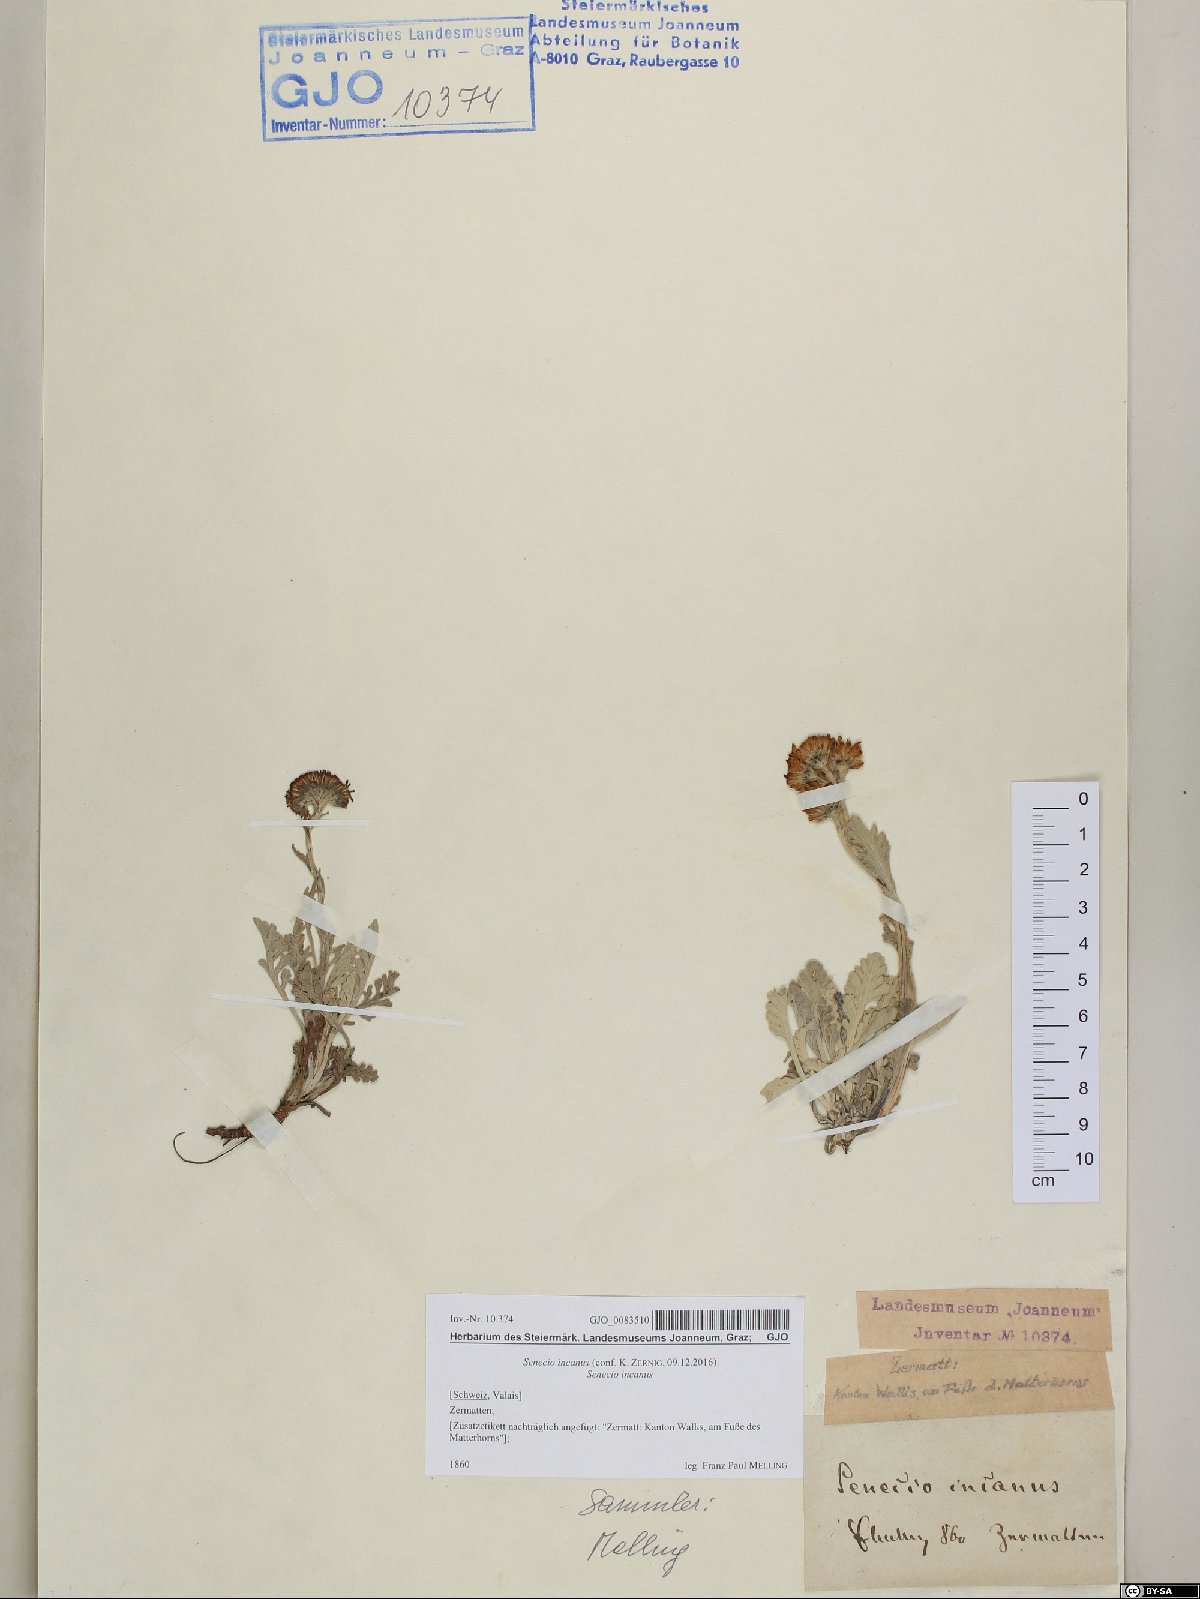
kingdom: Plantae
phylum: Tracheophyta
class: Magnoliopsida
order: Asterales
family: Asteraceae
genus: Jacobaea
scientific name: Jacobaea incana
